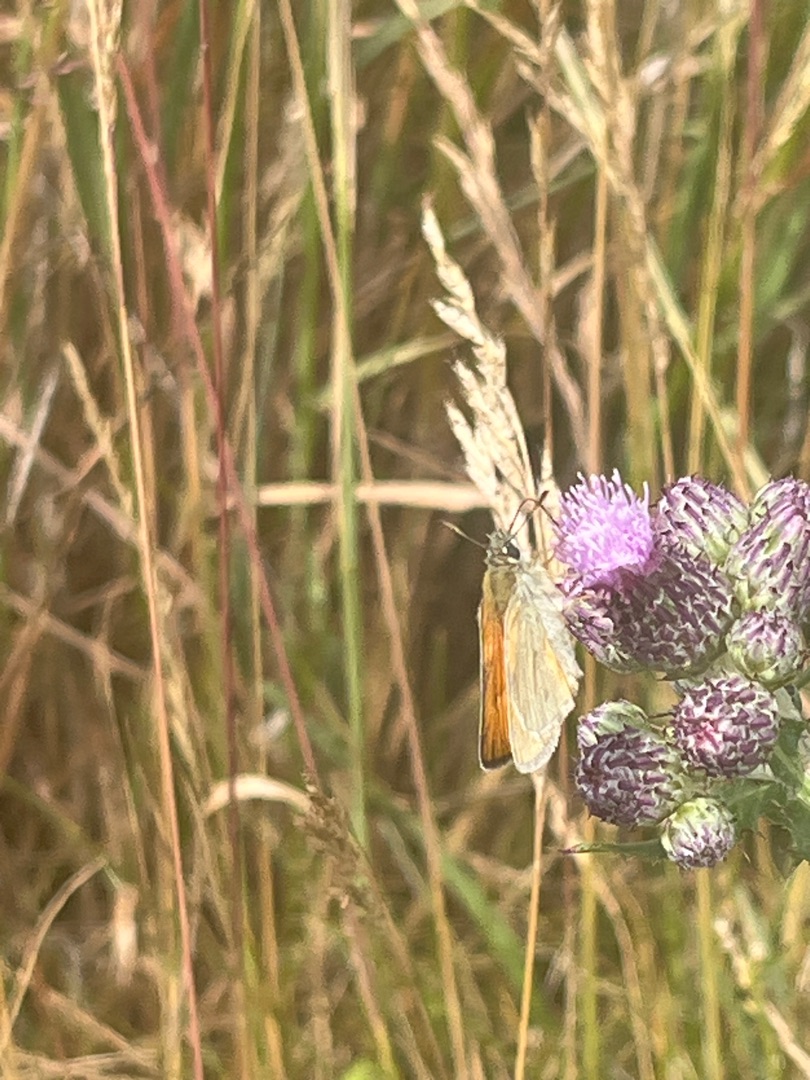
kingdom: Animalia
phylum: Arthropoda
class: Insecta
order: Lepidoptera
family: Hesperiidae
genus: Ochlodes
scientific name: Ochlodes venata
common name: Stor bredpande
